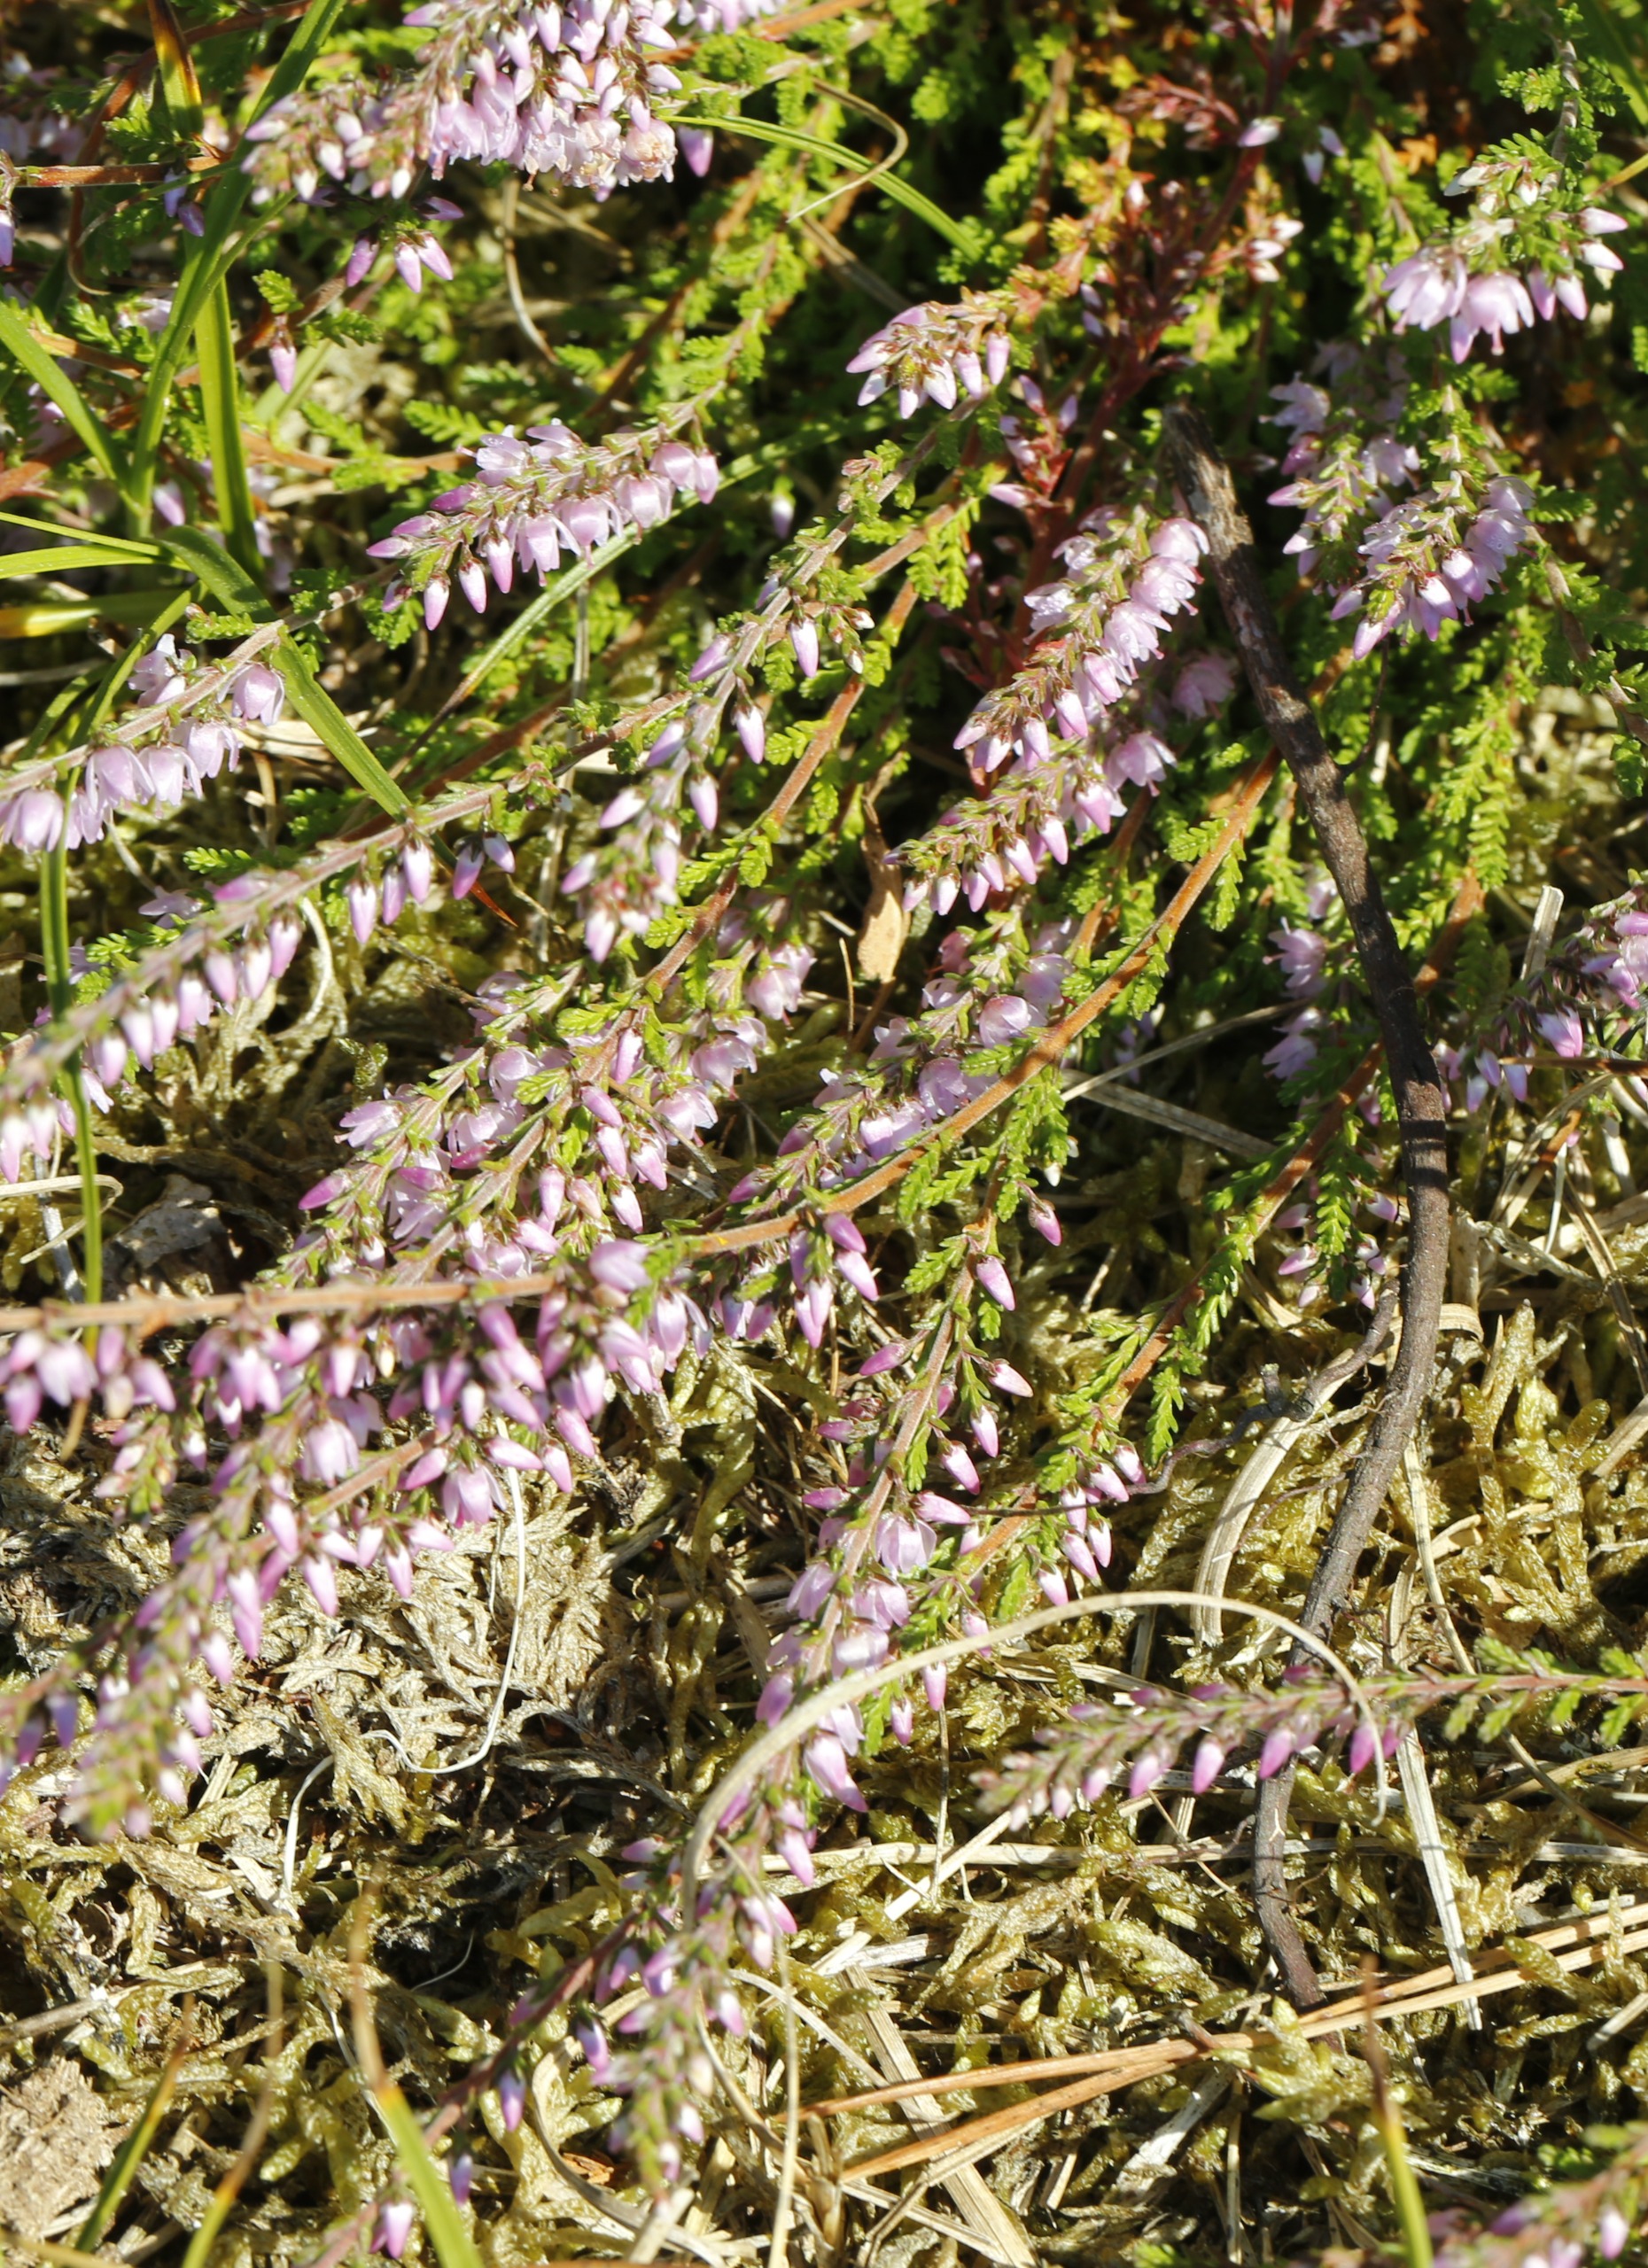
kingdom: Plantae
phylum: Tracheophyta
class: Magnoliopsida
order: Ericales
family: Ericaceae
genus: Calluna
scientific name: Calluna vulgaris
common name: Hedelyng
